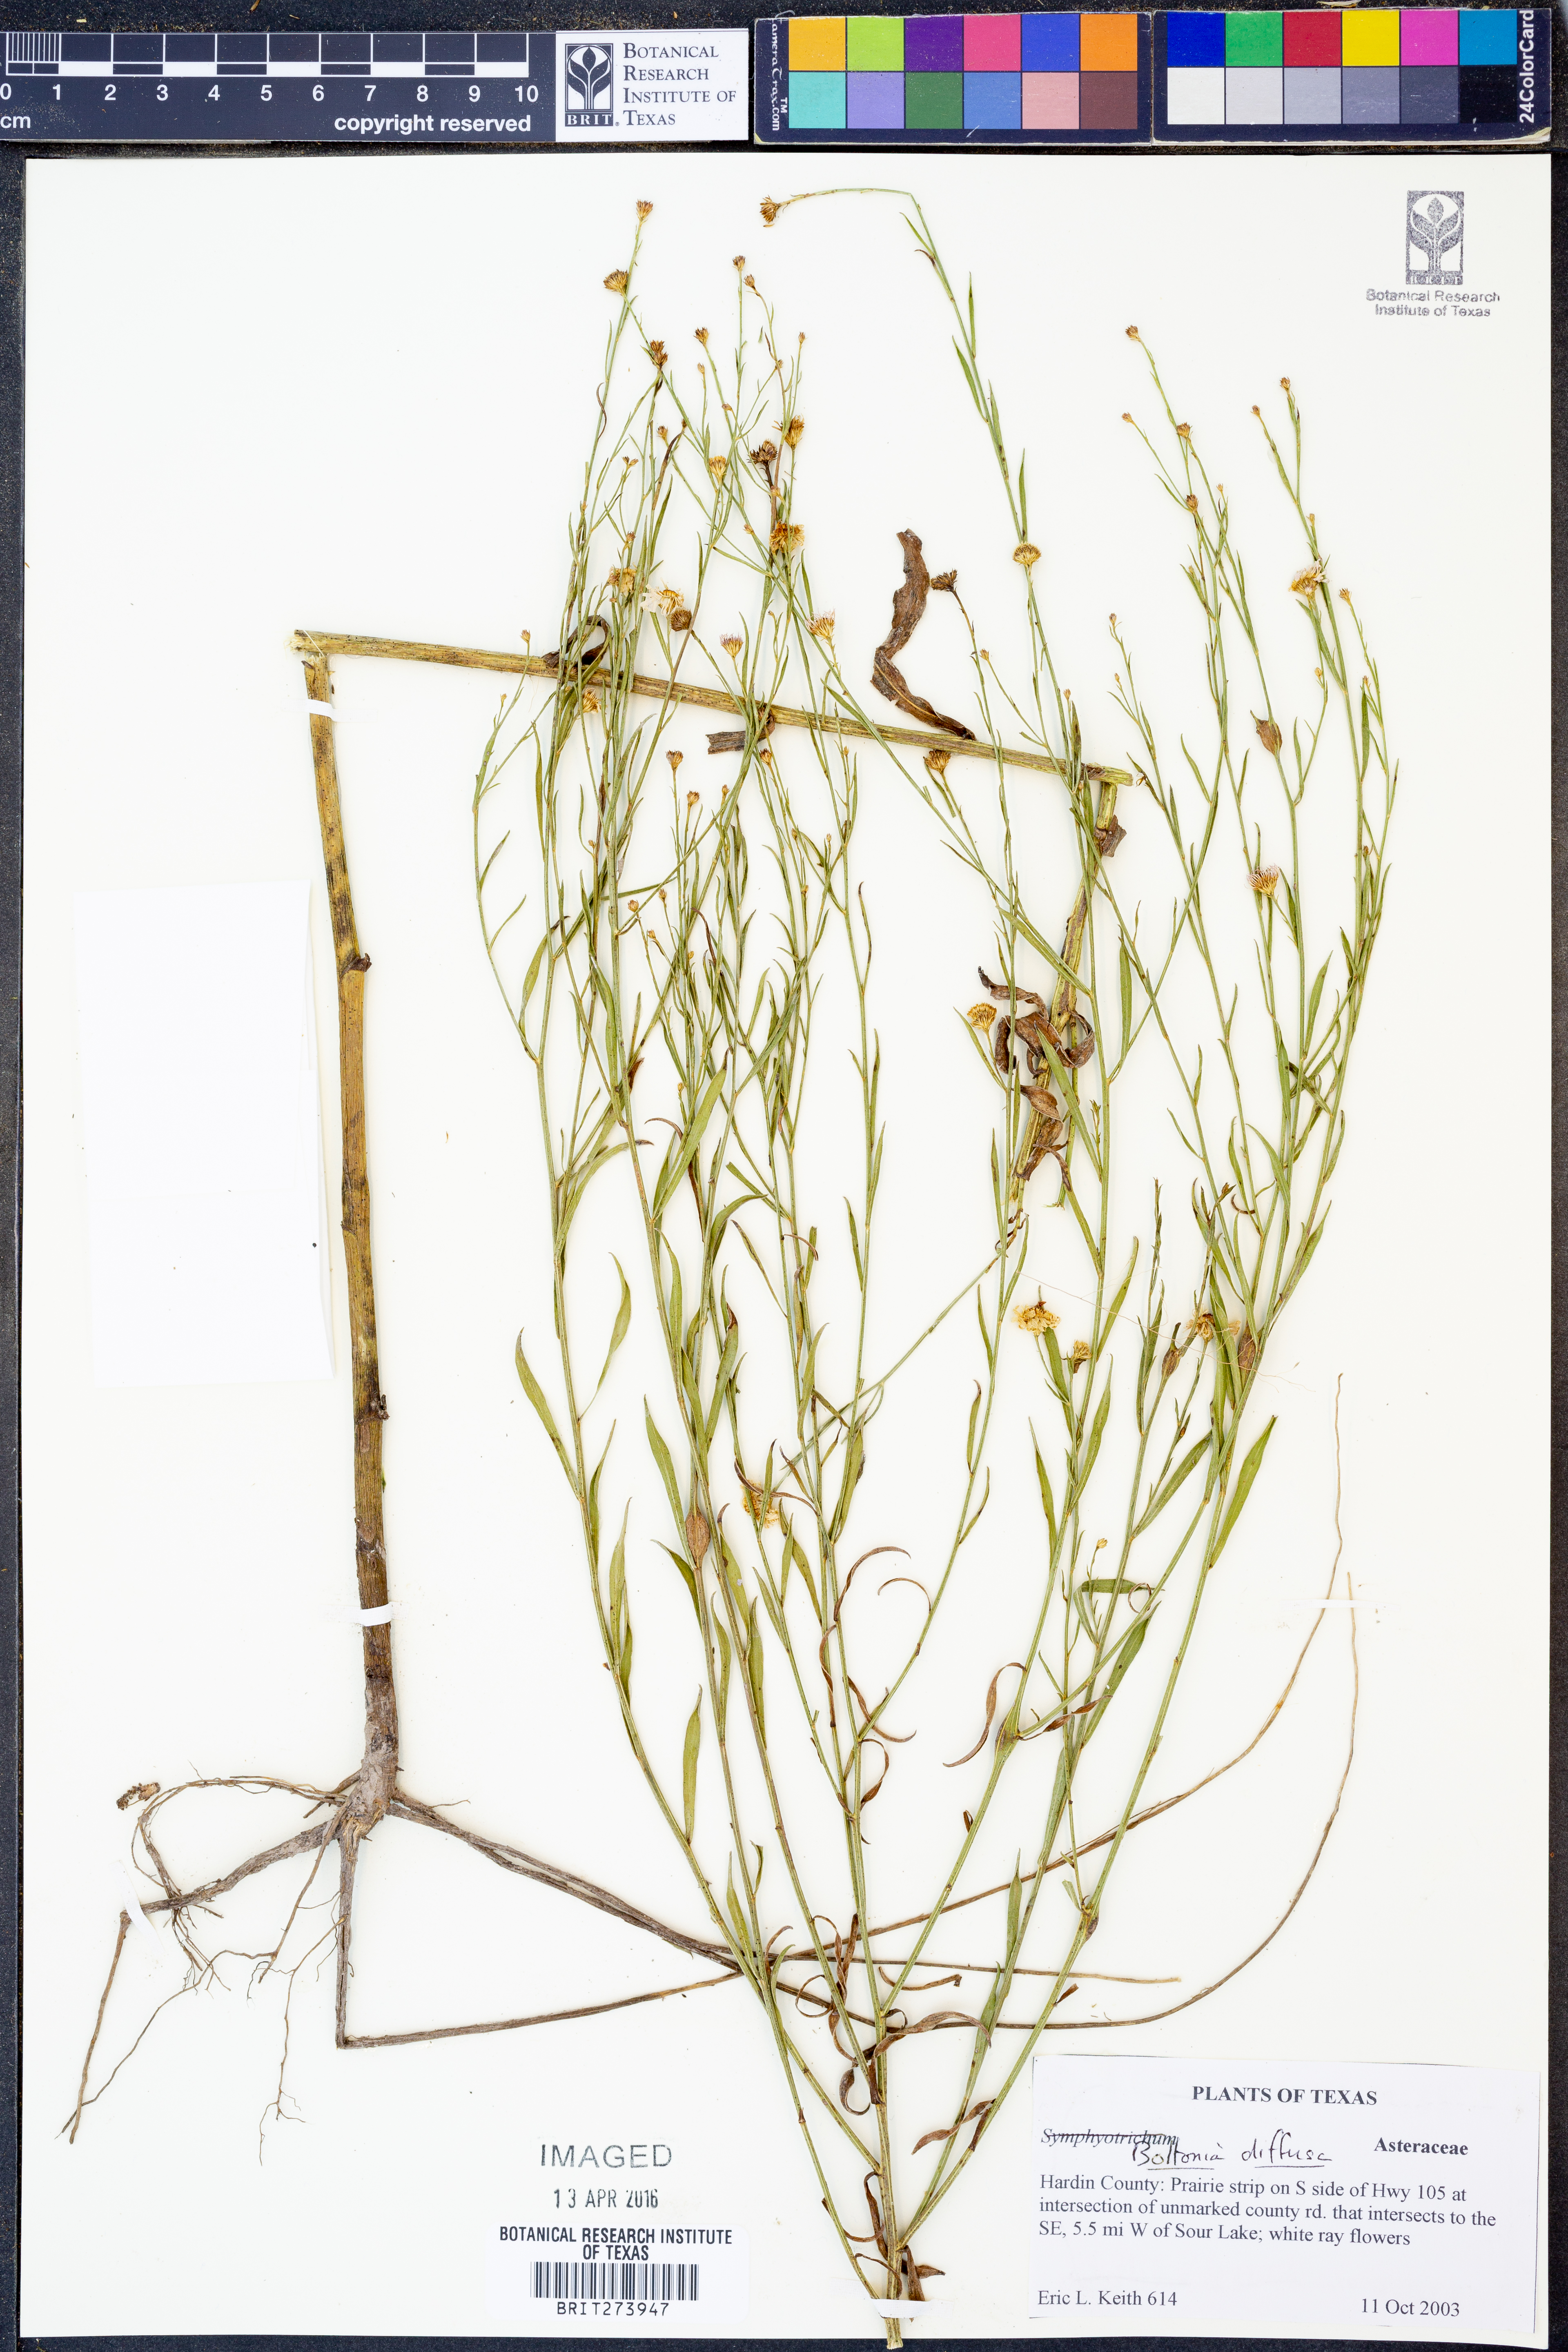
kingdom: Plantae
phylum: Tracheophyta
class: Magnoliopsida
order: Asterales
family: Asteraceae
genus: Boltonia
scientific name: Boltonia diffusa
